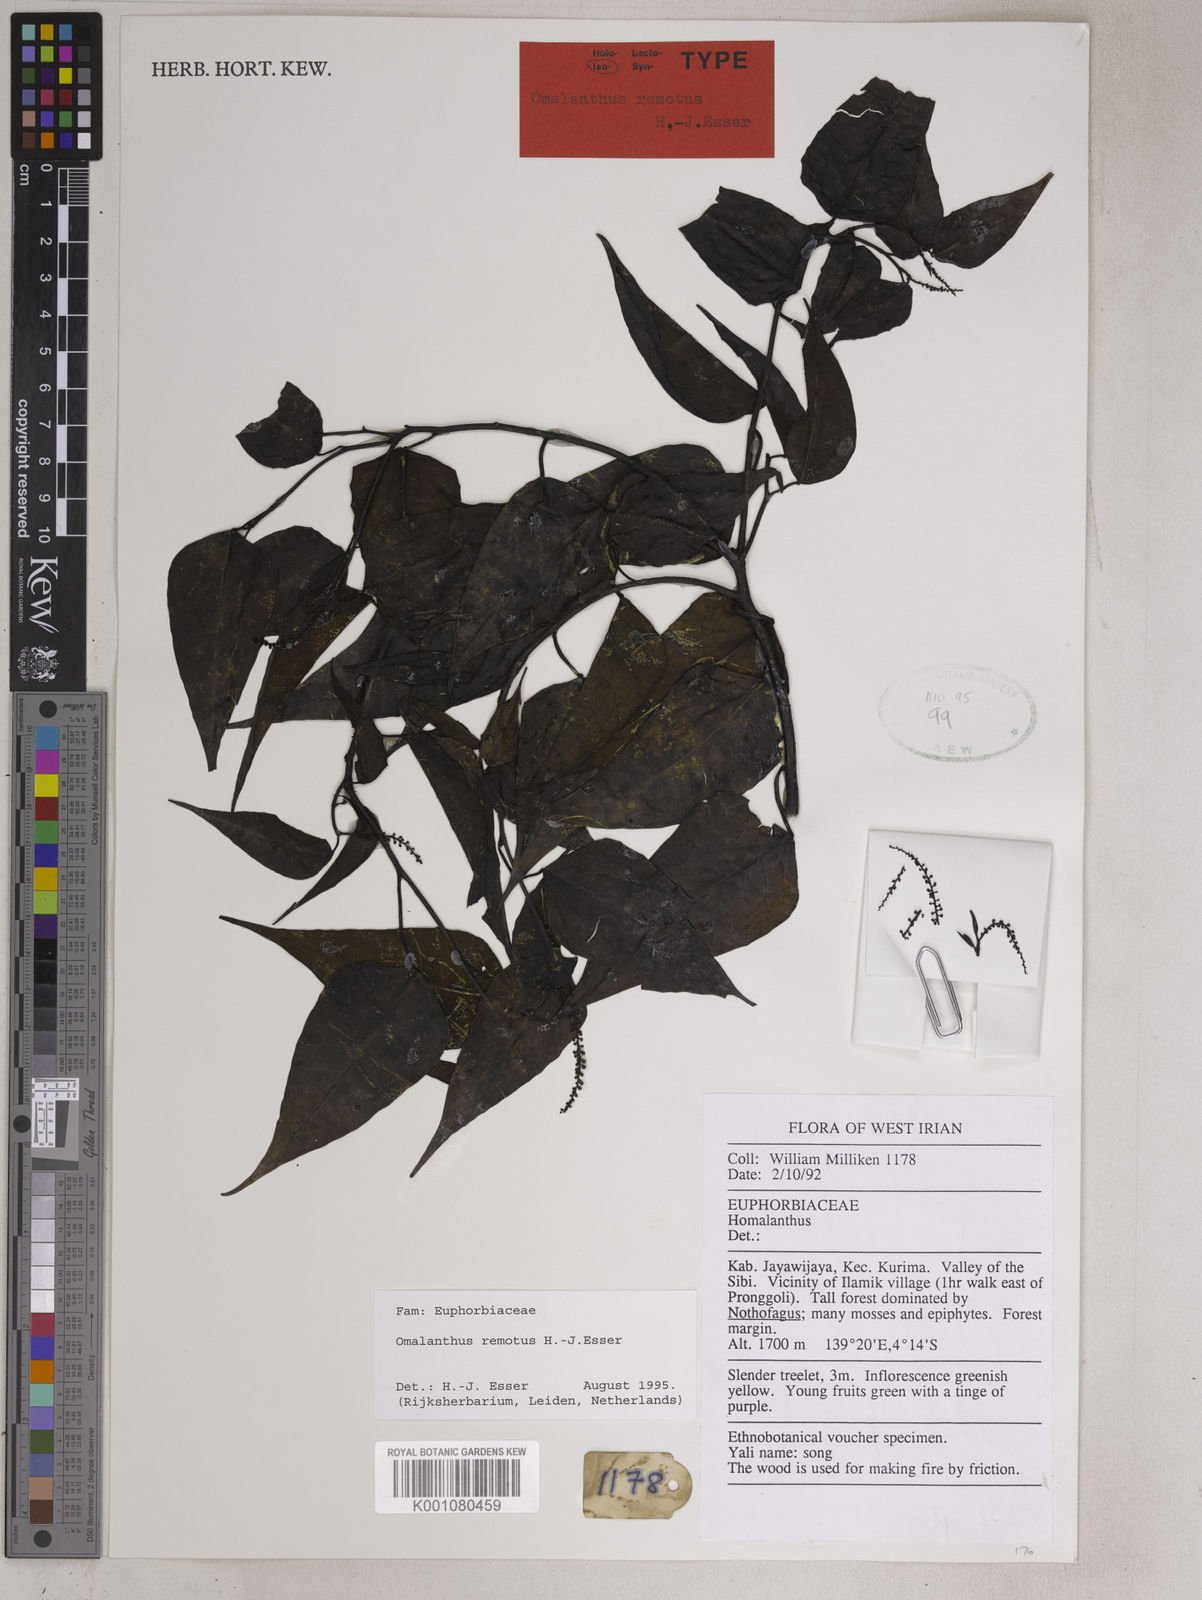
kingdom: Plantae
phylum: Tracheophyta
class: Magnoliopsida
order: Malpighiales
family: Euphorbiaceae
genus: Homalanthus
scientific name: Homalanthus remotus
